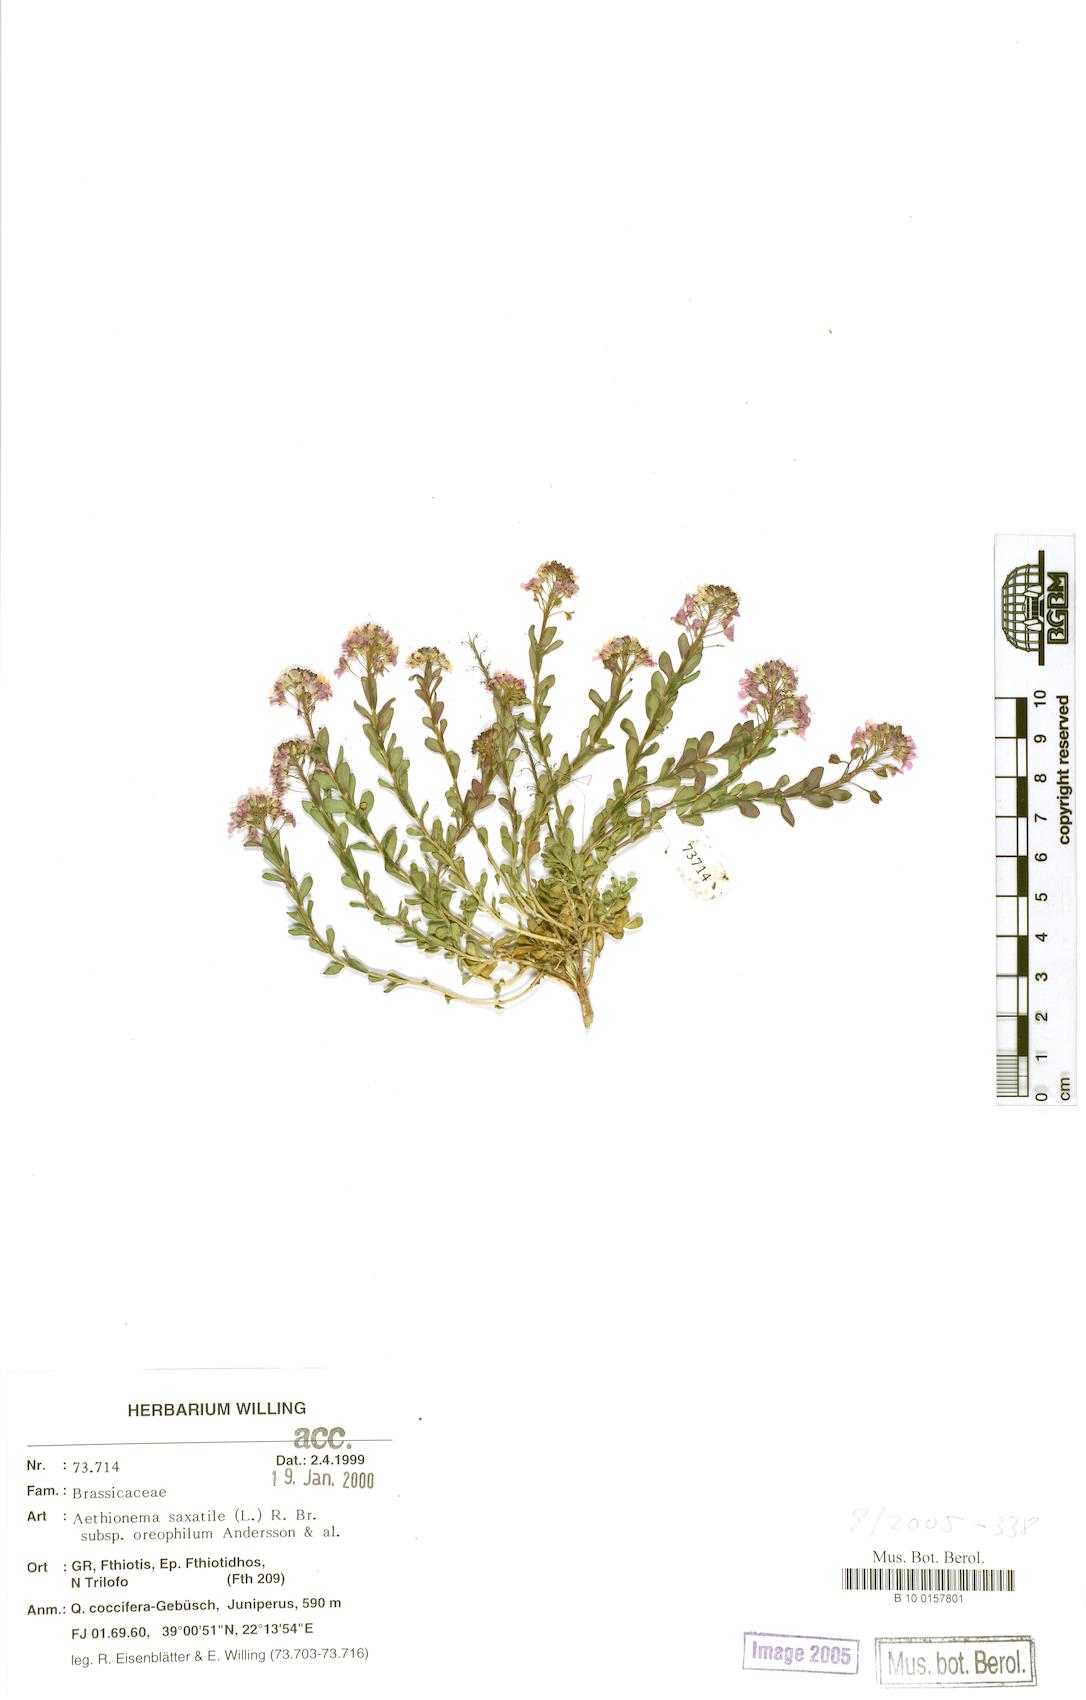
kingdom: Plantae
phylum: Tracheophyta
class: Magnoliopsida
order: Brassicales
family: Brassicaceae
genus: Aethionema
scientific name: Aethionema saxatile
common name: Burnt candytuft
